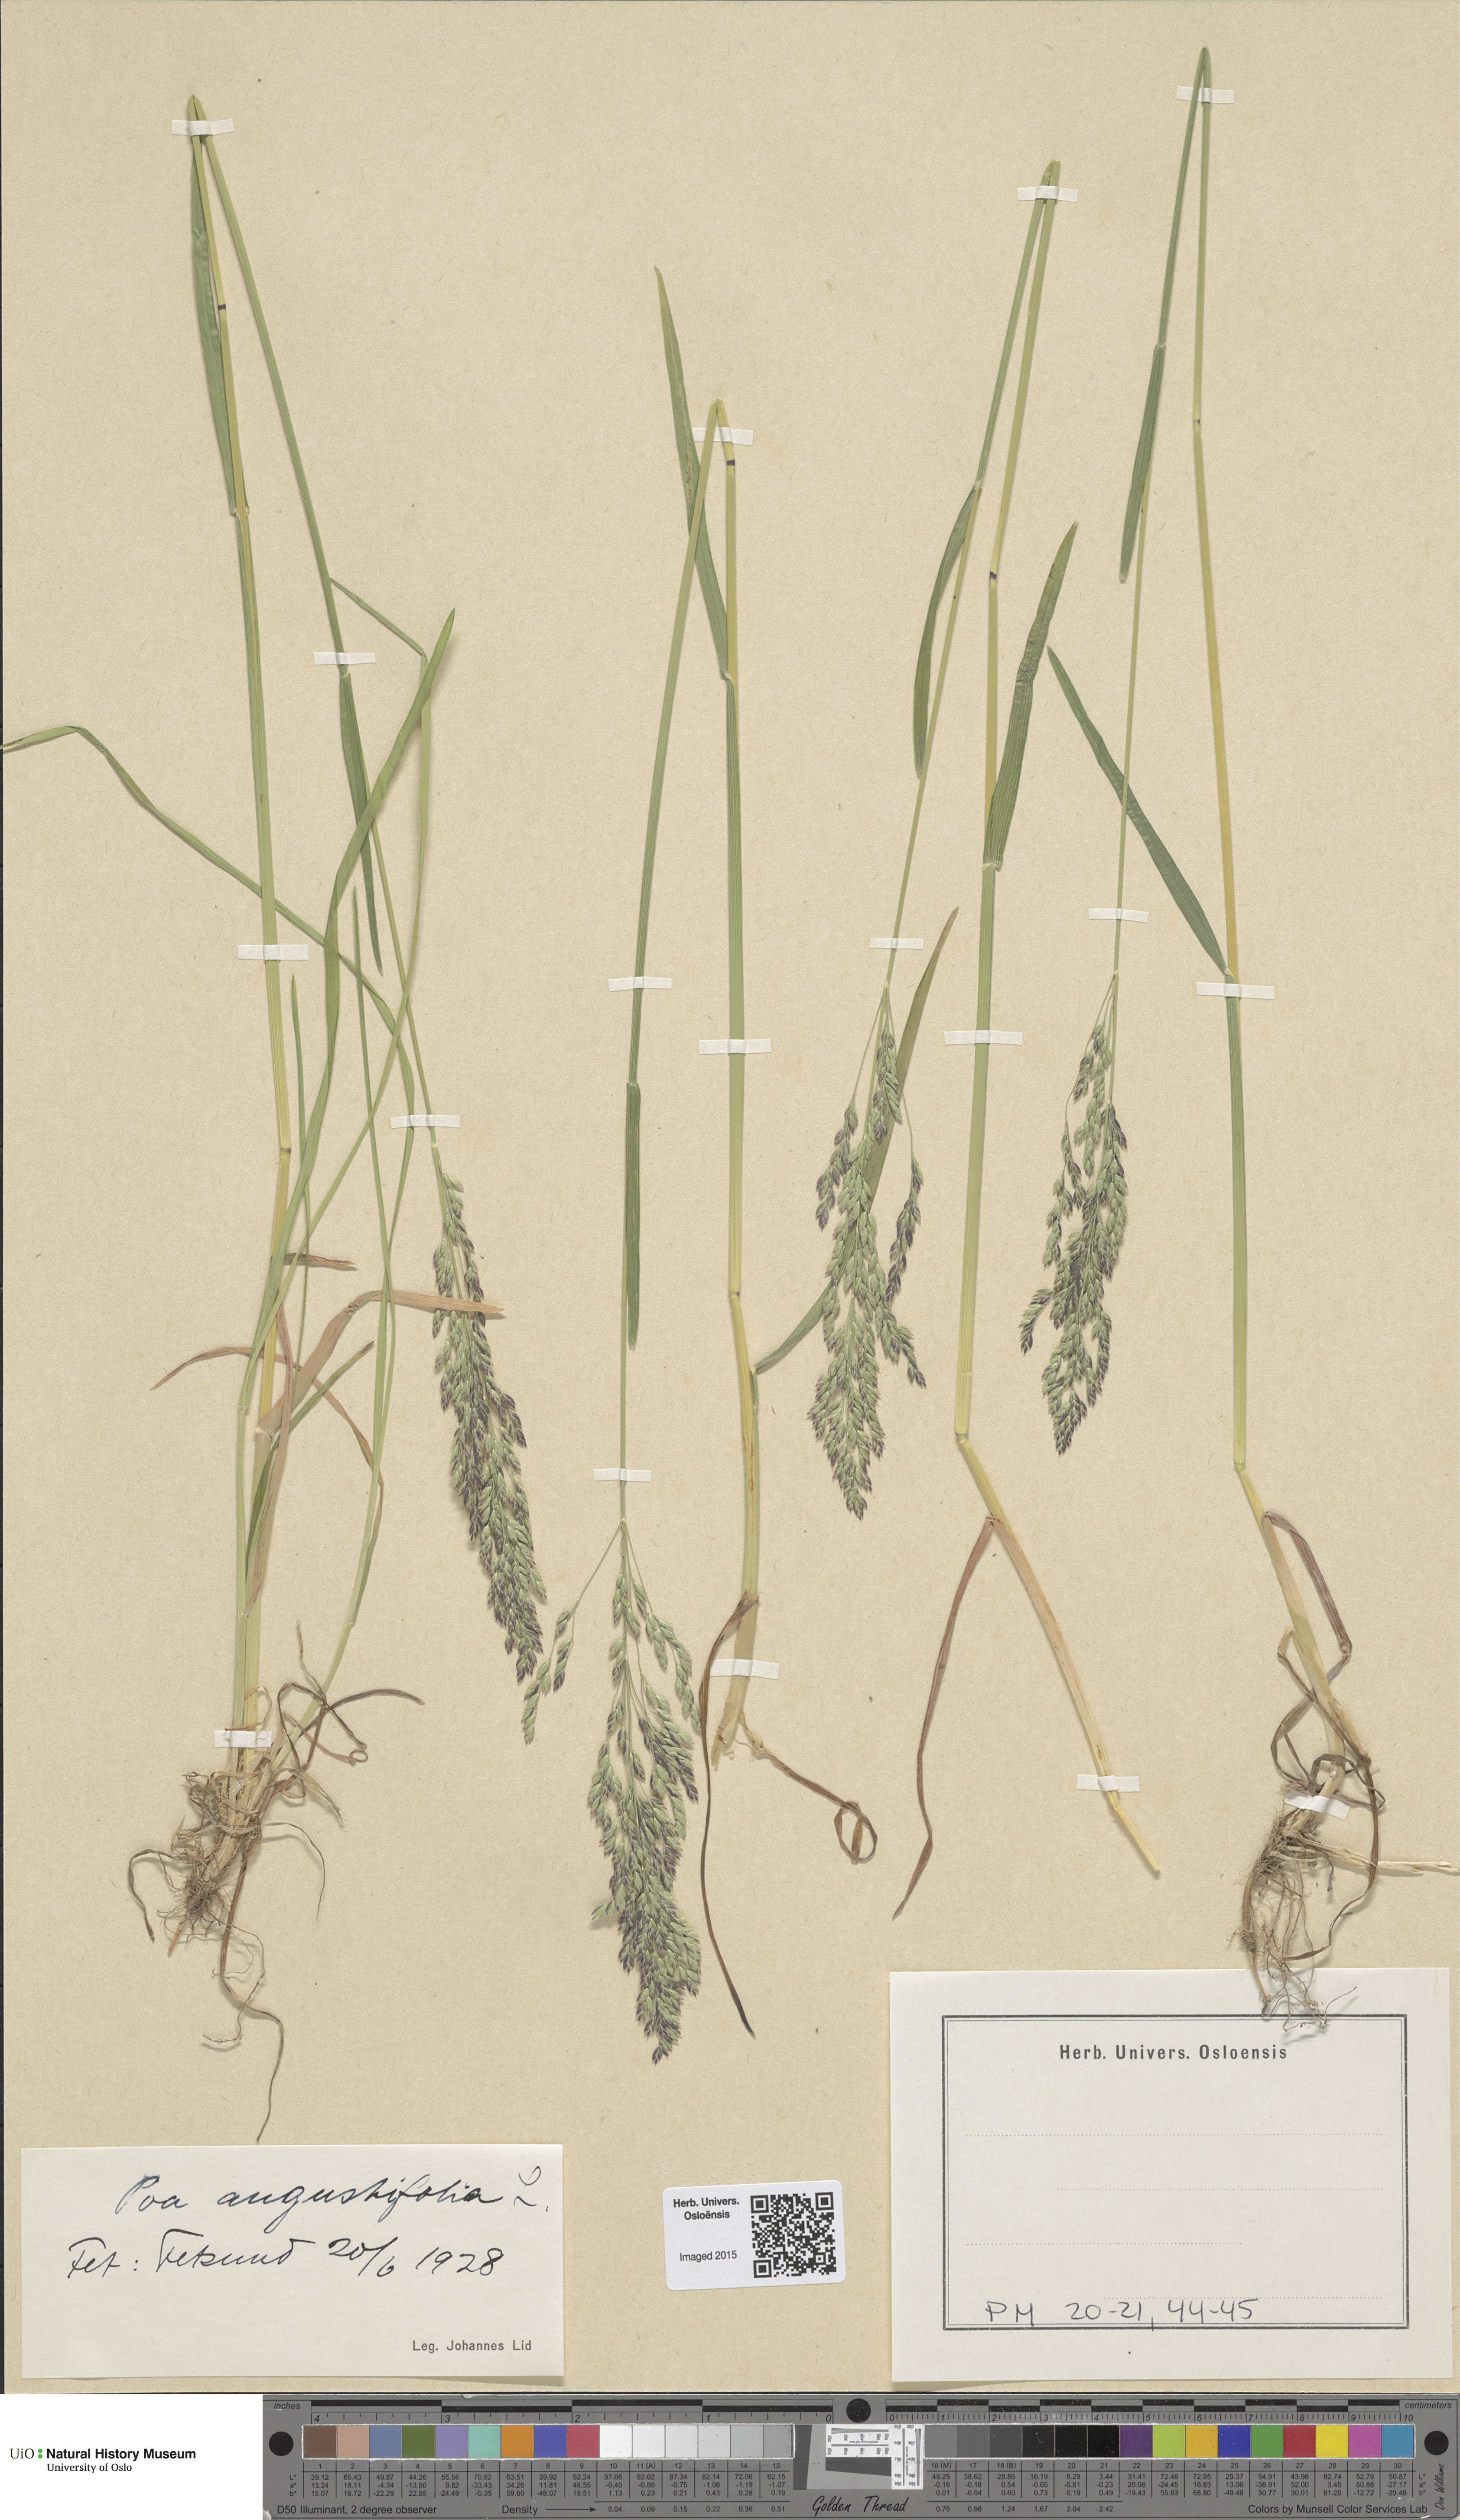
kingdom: Plantae
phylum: Tracheophyta
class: Liliopsida
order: Poales
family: Poaceae
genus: Poa
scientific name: Poa angustifolia
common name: Narrow-leaved meadow-grass
